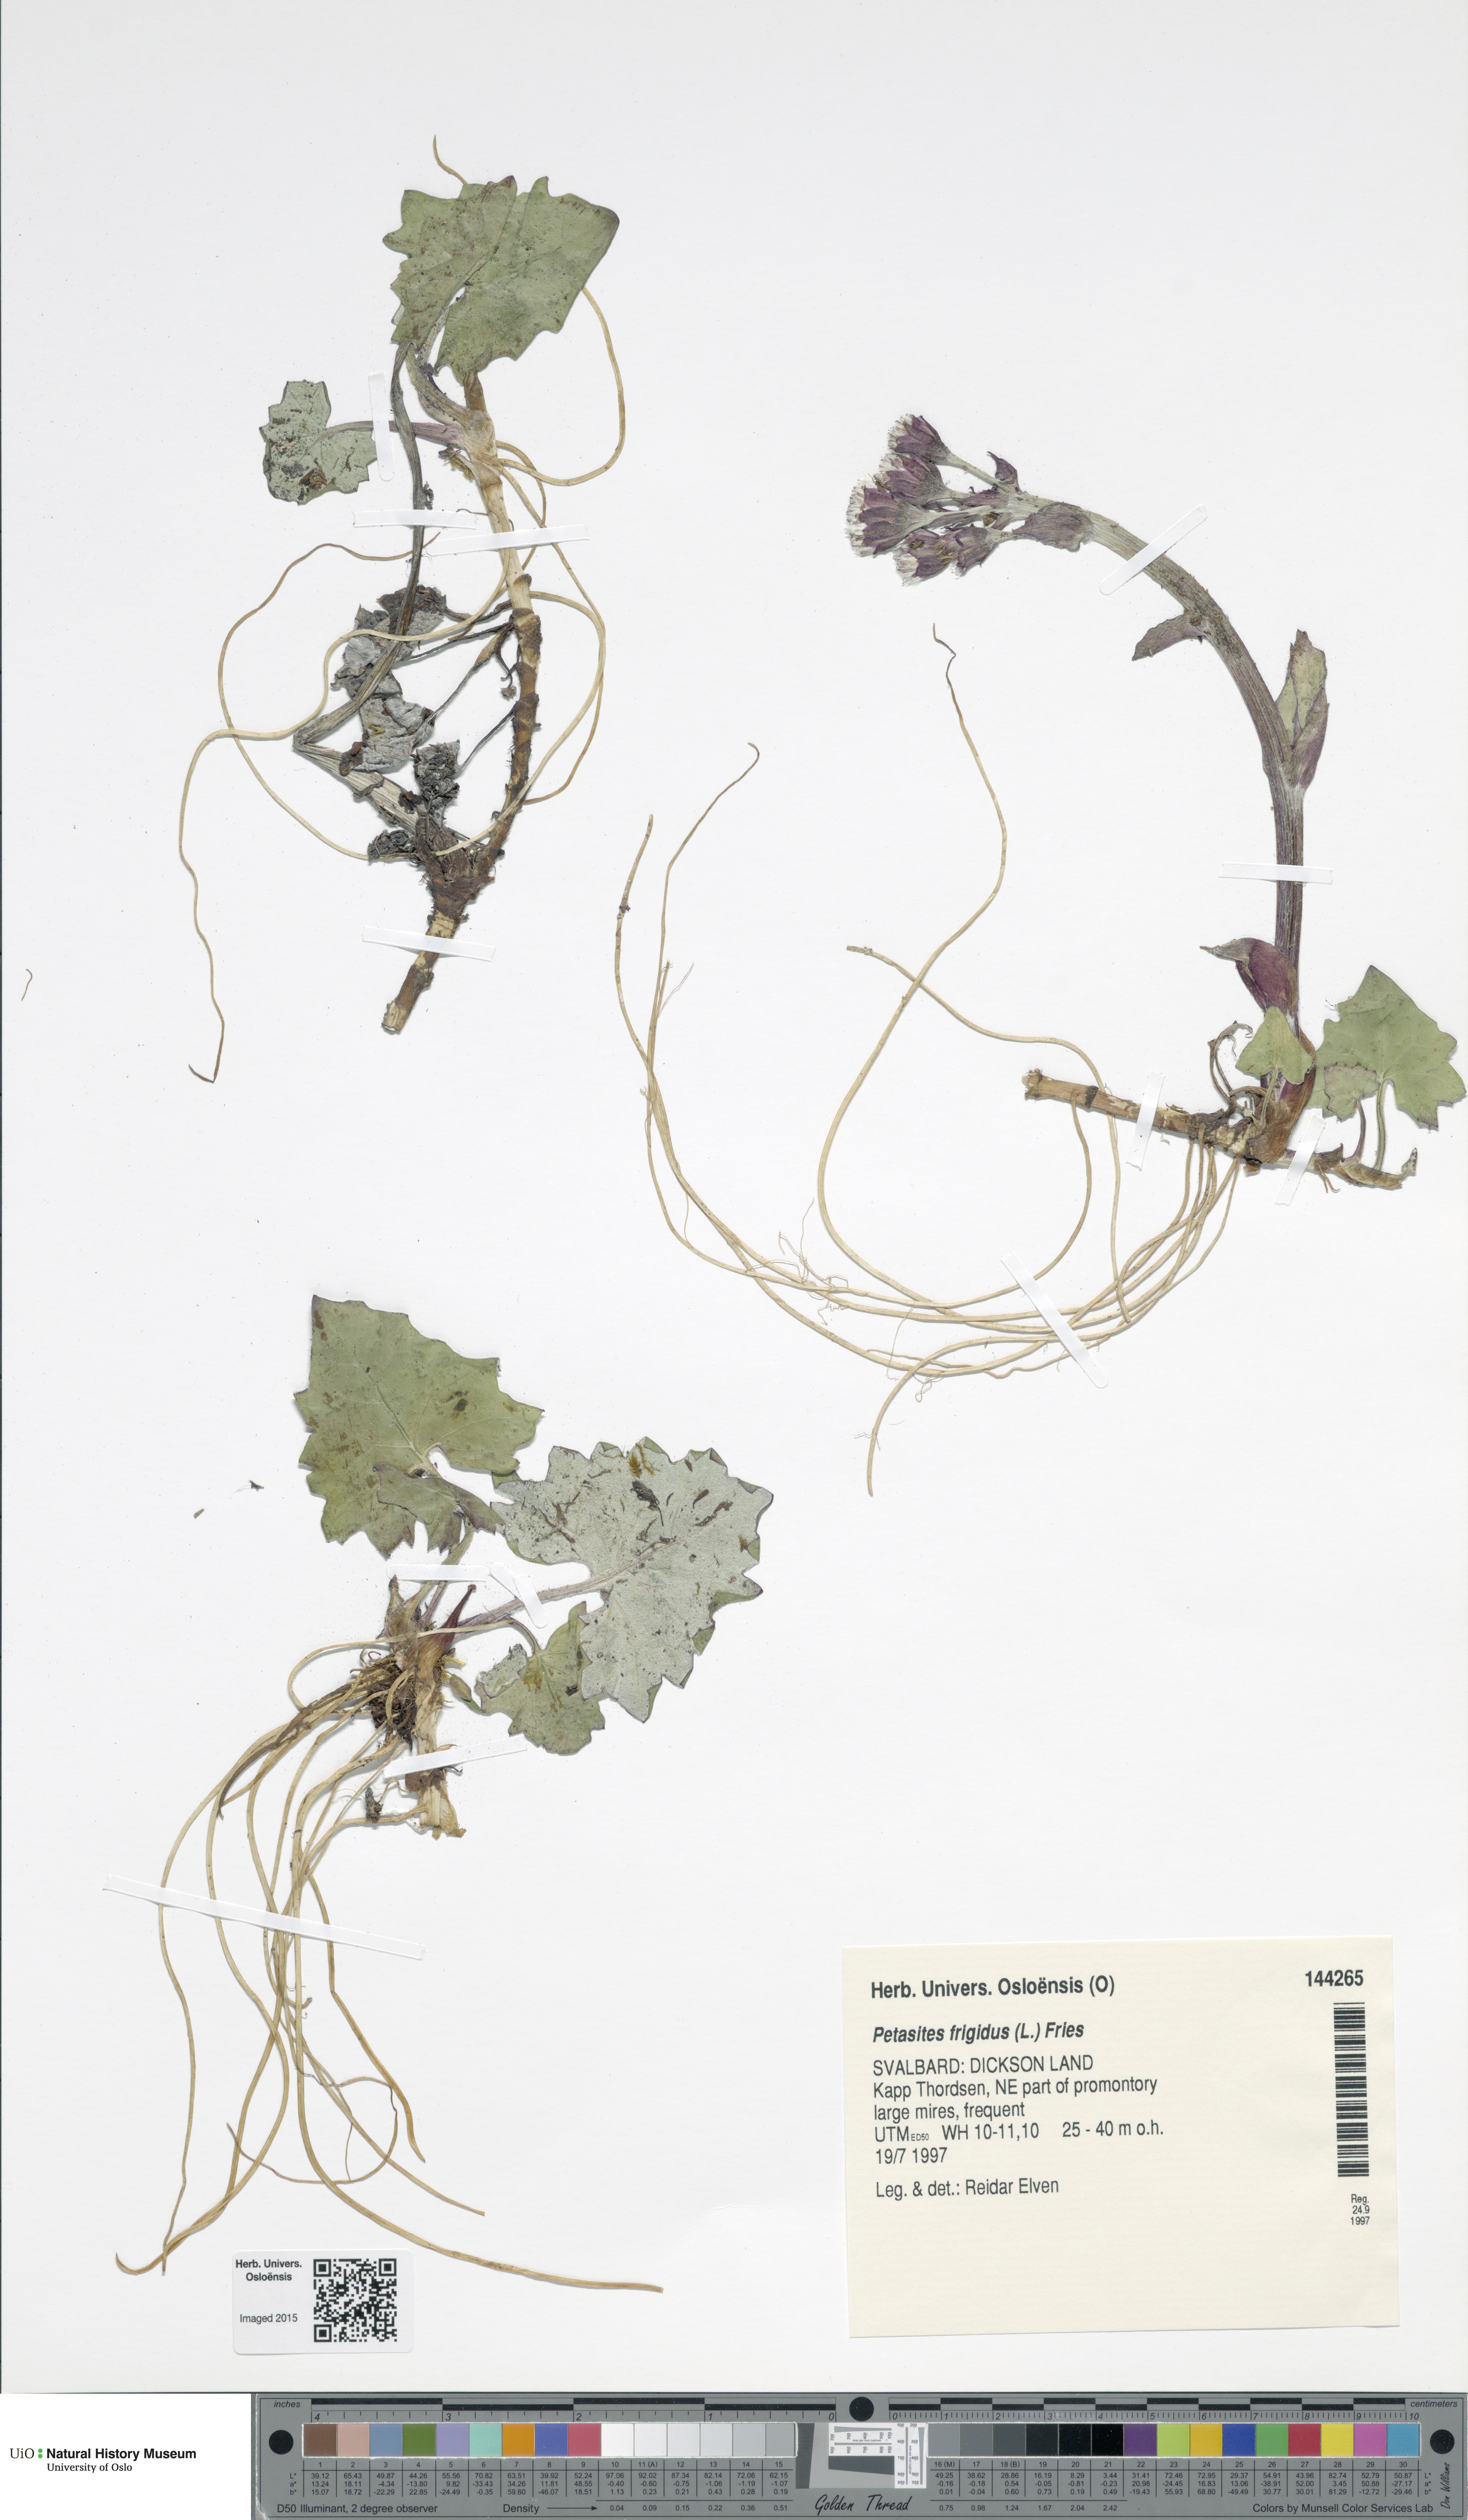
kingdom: Plantae
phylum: Tracheophyta
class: Magnoliopsida
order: Asterales
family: Asteraceae
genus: Petasites
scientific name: Petasites frigidus
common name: Arctic butterbur
